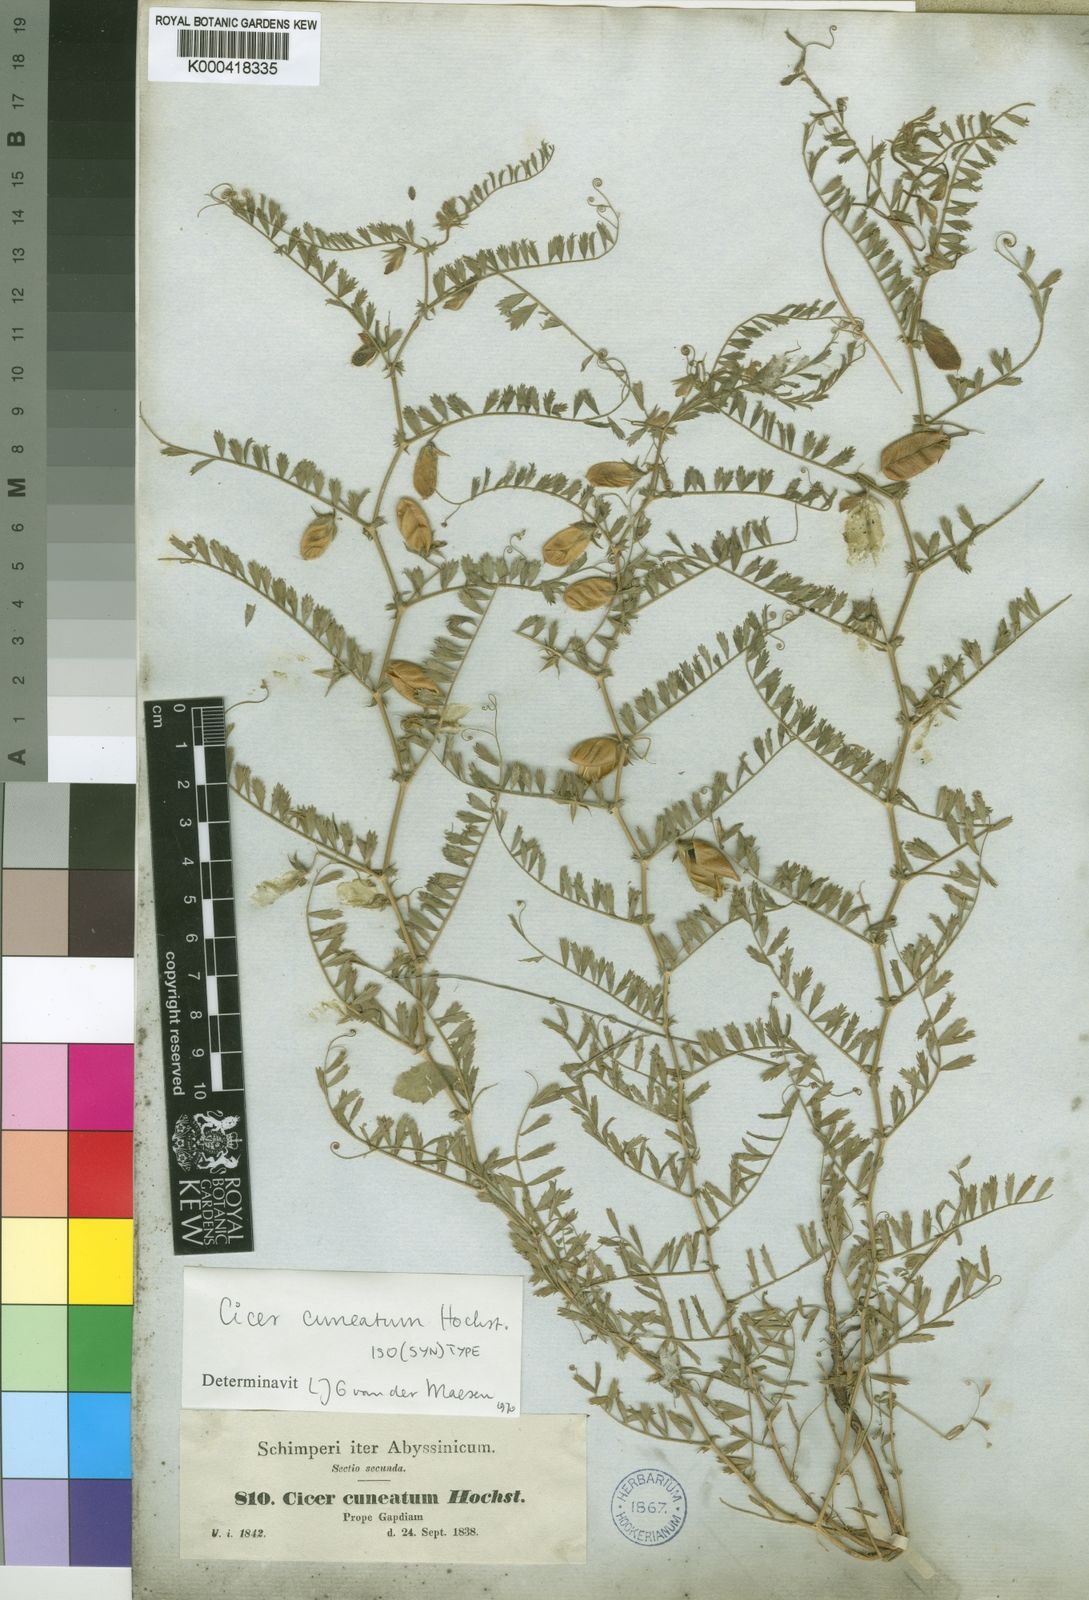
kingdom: Plantae
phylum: Tracheophyta
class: Magnoliopsida
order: Fabales
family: Fabaceae
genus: Cicer
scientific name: Cicer cuneatum
